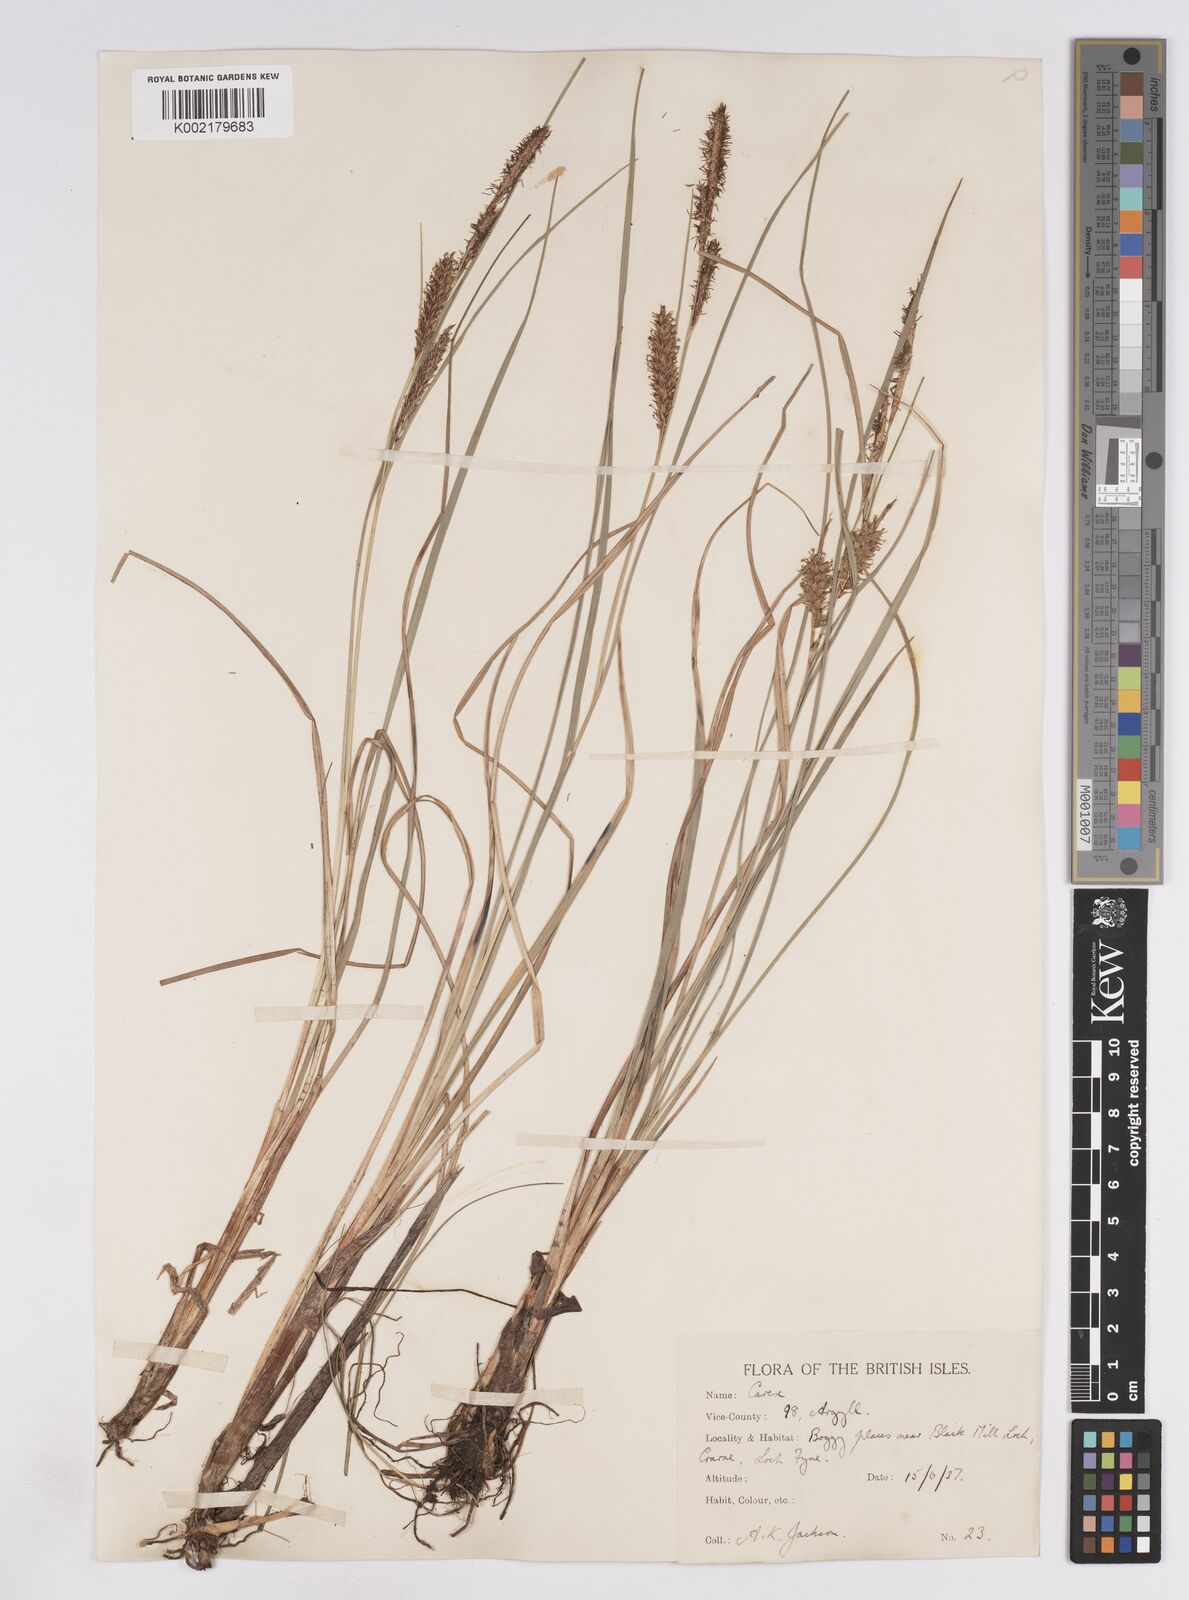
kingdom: Plantae
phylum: Tracheophyta
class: Liliopsida
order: Poales
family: Cyperaceae
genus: Carex
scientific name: Carex rostrata
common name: Bottle sedge
